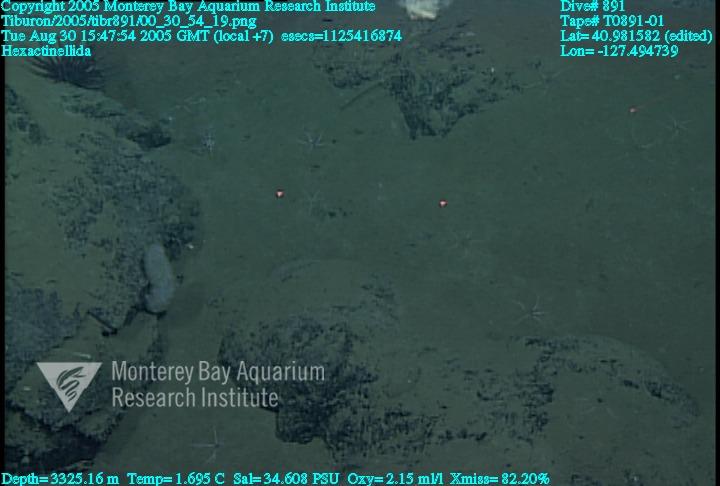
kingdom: Animalia
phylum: Porifera
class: Hexactinellida
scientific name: Hexactinellida
